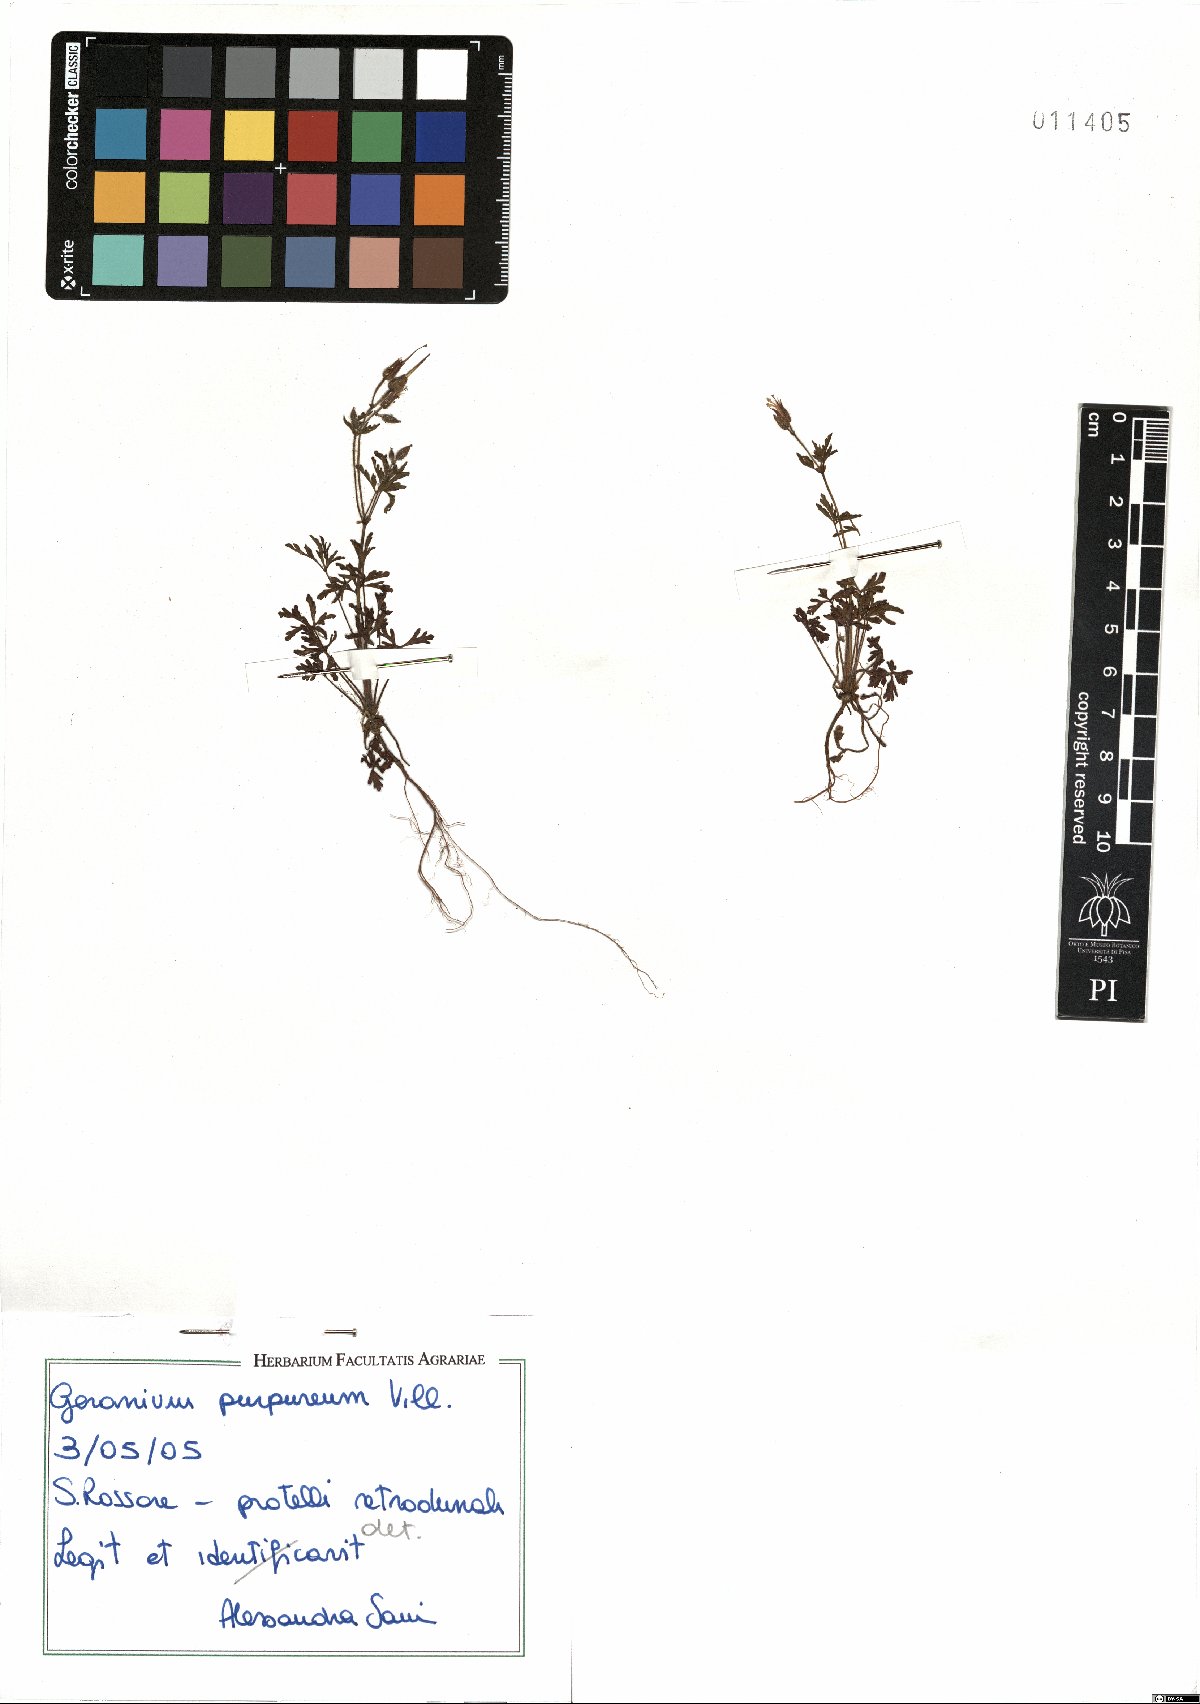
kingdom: Plantae
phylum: Tracheophyta
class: Magnoliopsida
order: Geraniales
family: Geraniaceae
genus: Geranium
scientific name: Geranium purpureum
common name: Little-robin
